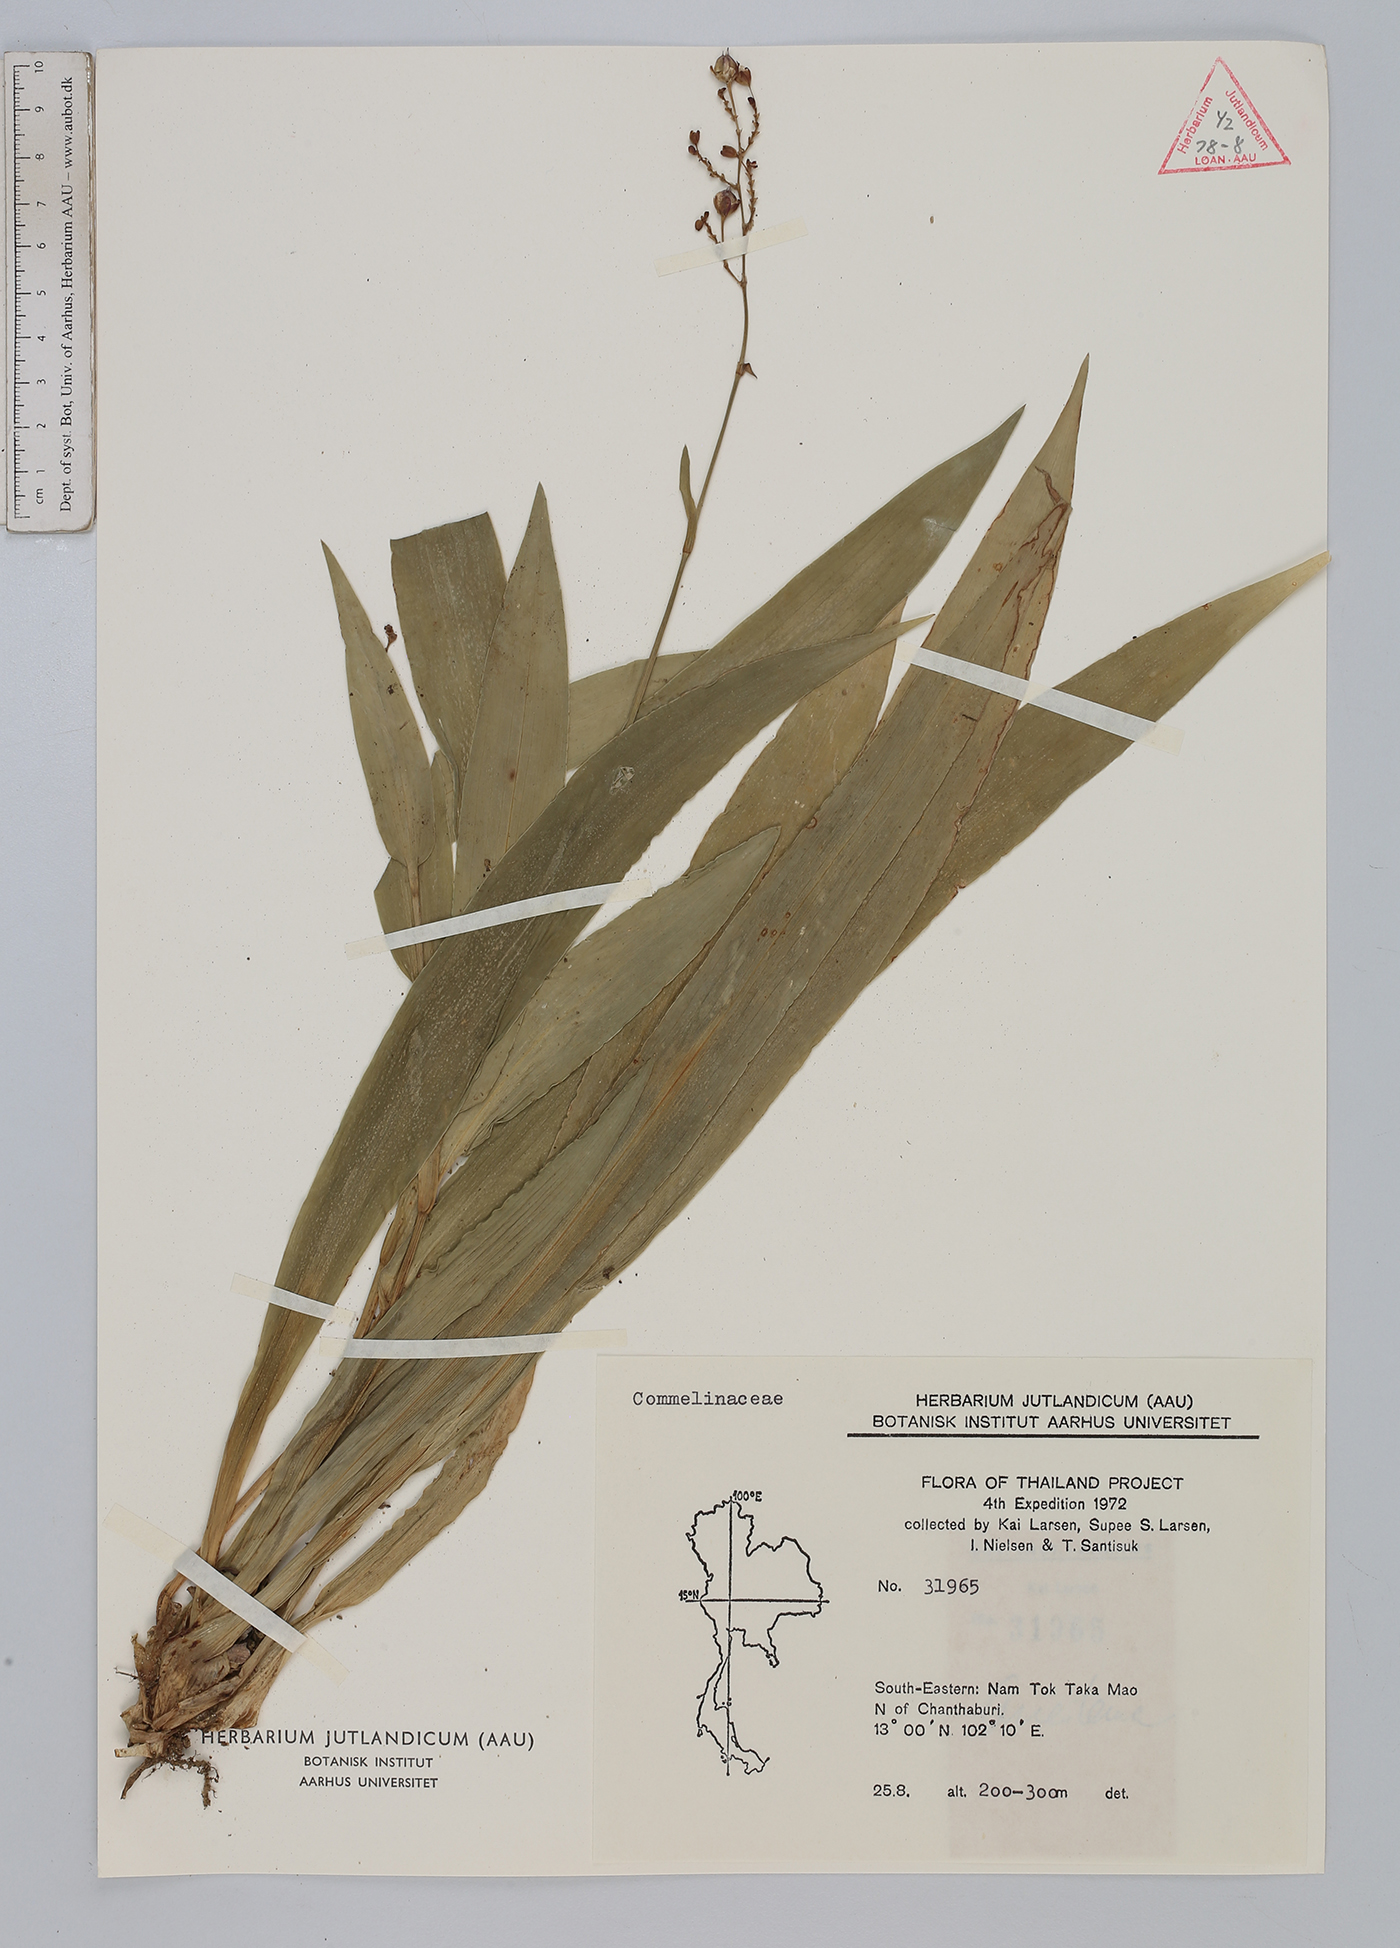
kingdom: Plantae
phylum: Tracheophyta
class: Liliopsida
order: Commelinales
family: Commelinaceae
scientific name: Commelinaceae
